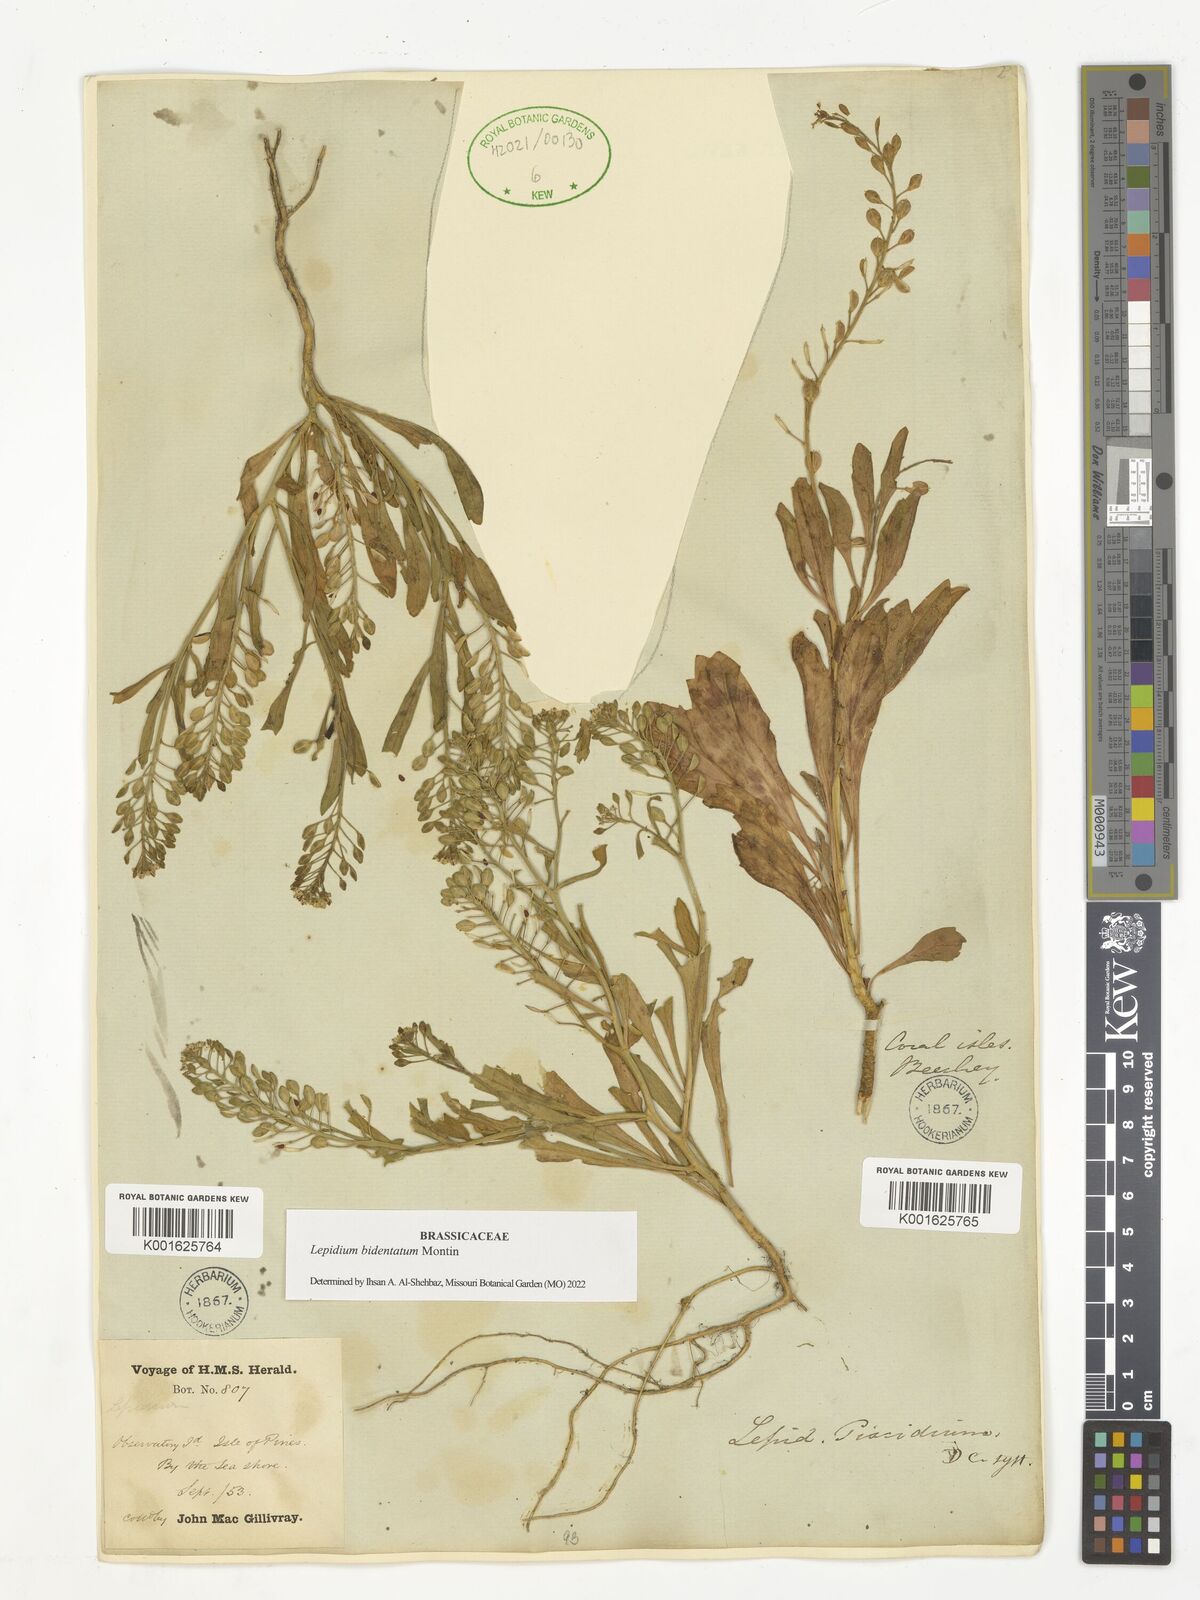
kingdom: Plantae
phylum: Tracheophyta
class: Magnoliopsida
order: Brassicales
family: Brassicaceae
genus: Lepidium
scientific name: Lepidium bidentatum
